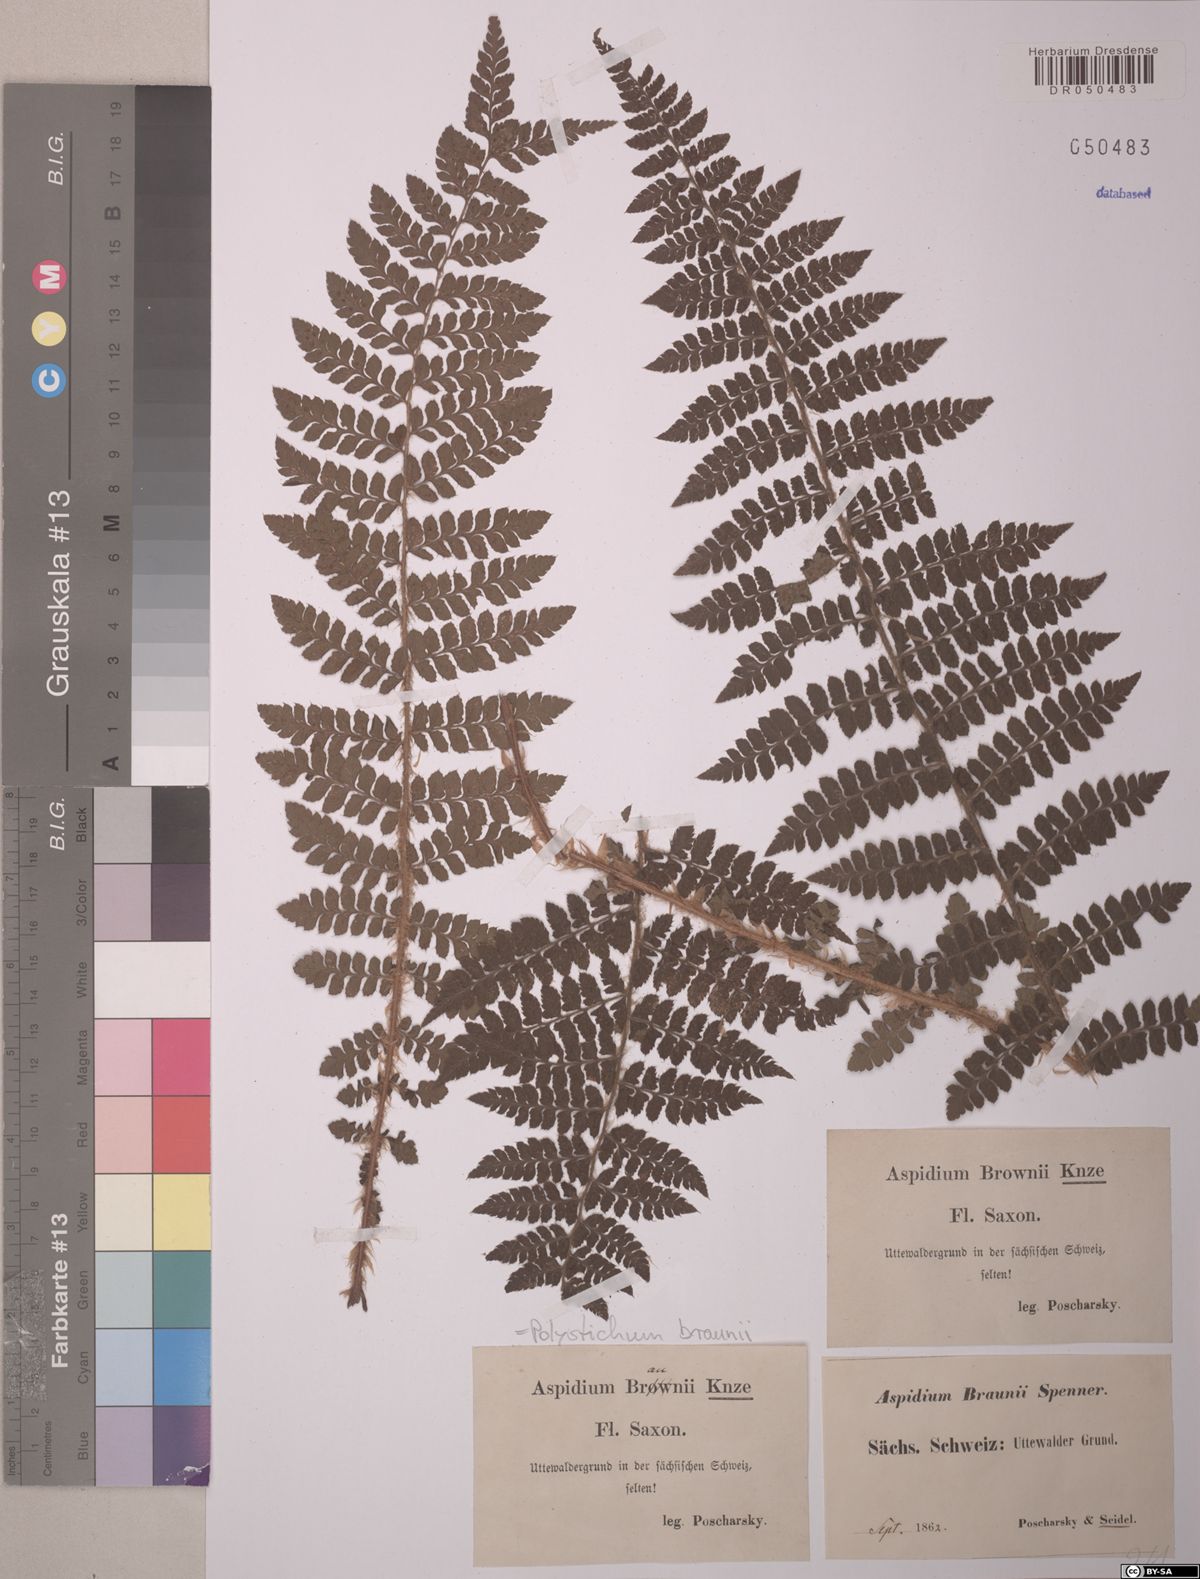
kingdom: Plantae
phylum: Tracheophyta
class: Polypodiopsida
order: Polypodiales
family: Dryopteridaceae
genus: Polystichum
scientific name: Polystichum braunii
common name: Braun's holly fern
